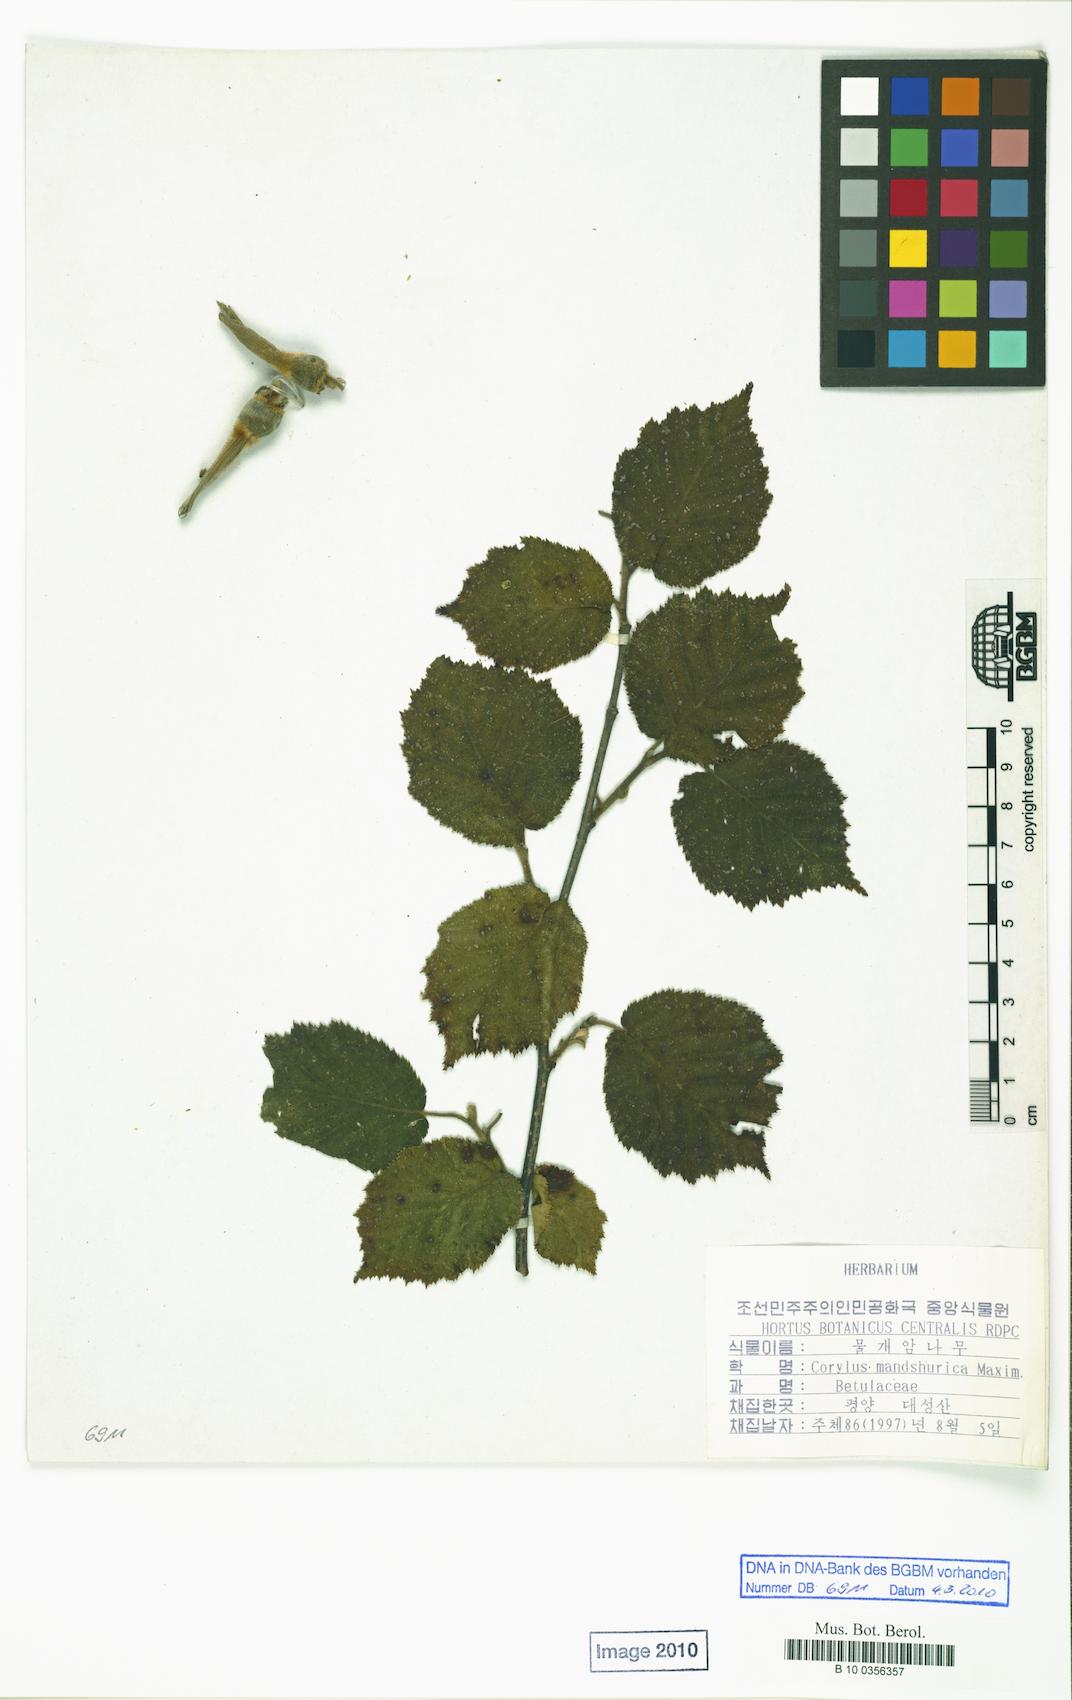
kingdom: Plantae
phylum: Tracheophyta
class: Magnoliopsida
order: Fagales
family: Betulaceae
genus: Corylus
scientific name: Corylus sieboldiana
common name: Japanese hazel
